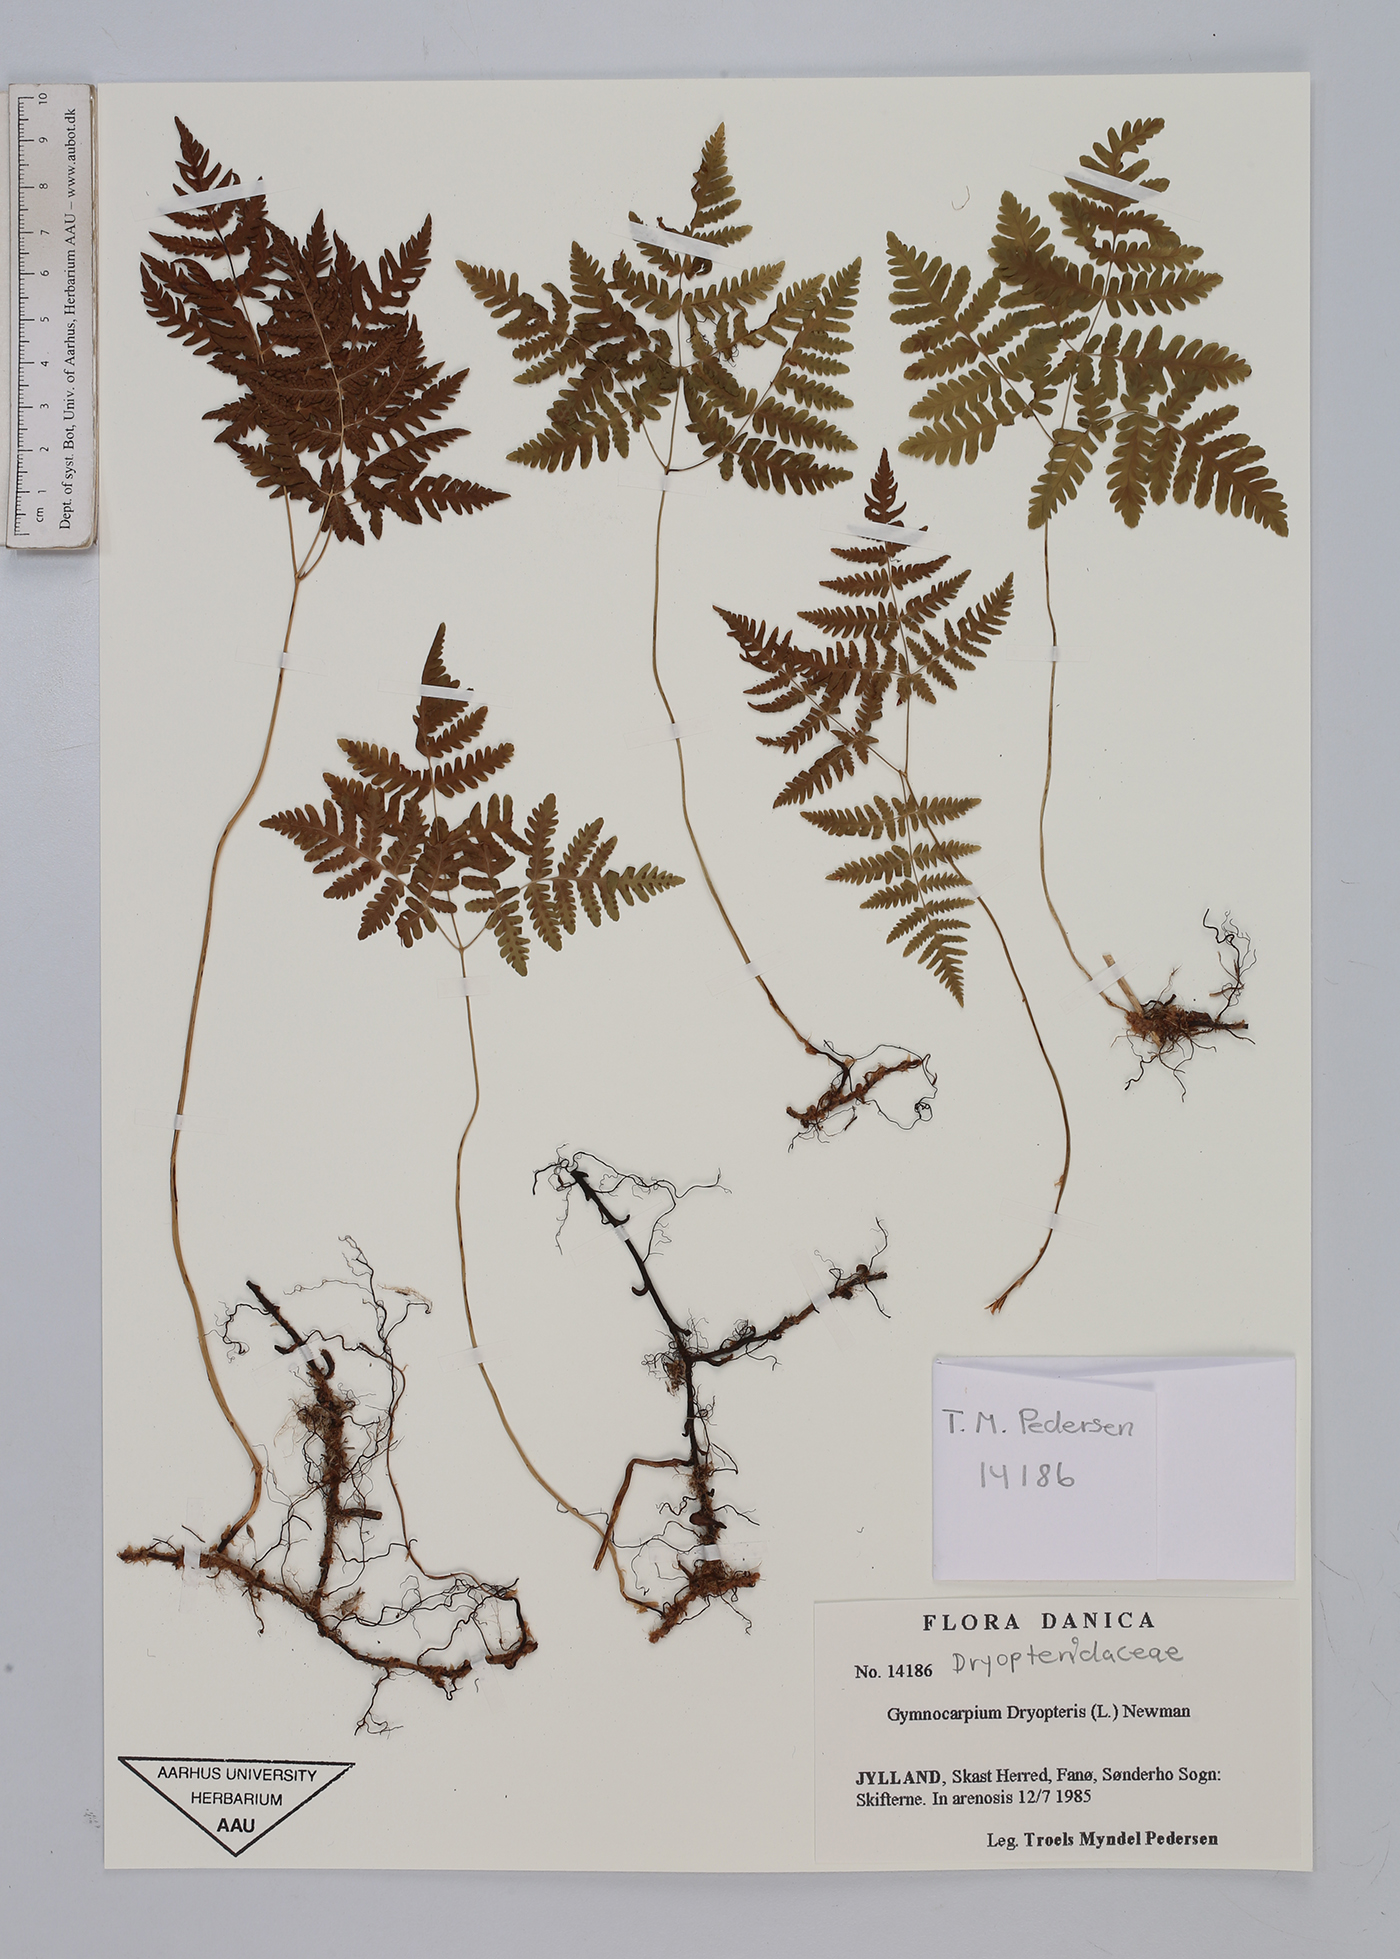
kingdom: Plantae
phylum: Tracheophyta
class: Polypodiopsida
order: Polypodiales
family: Cystopteridaceae
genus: Gymnocarpium
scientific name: Gymnocarpium dryopteris
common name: Oak fern
